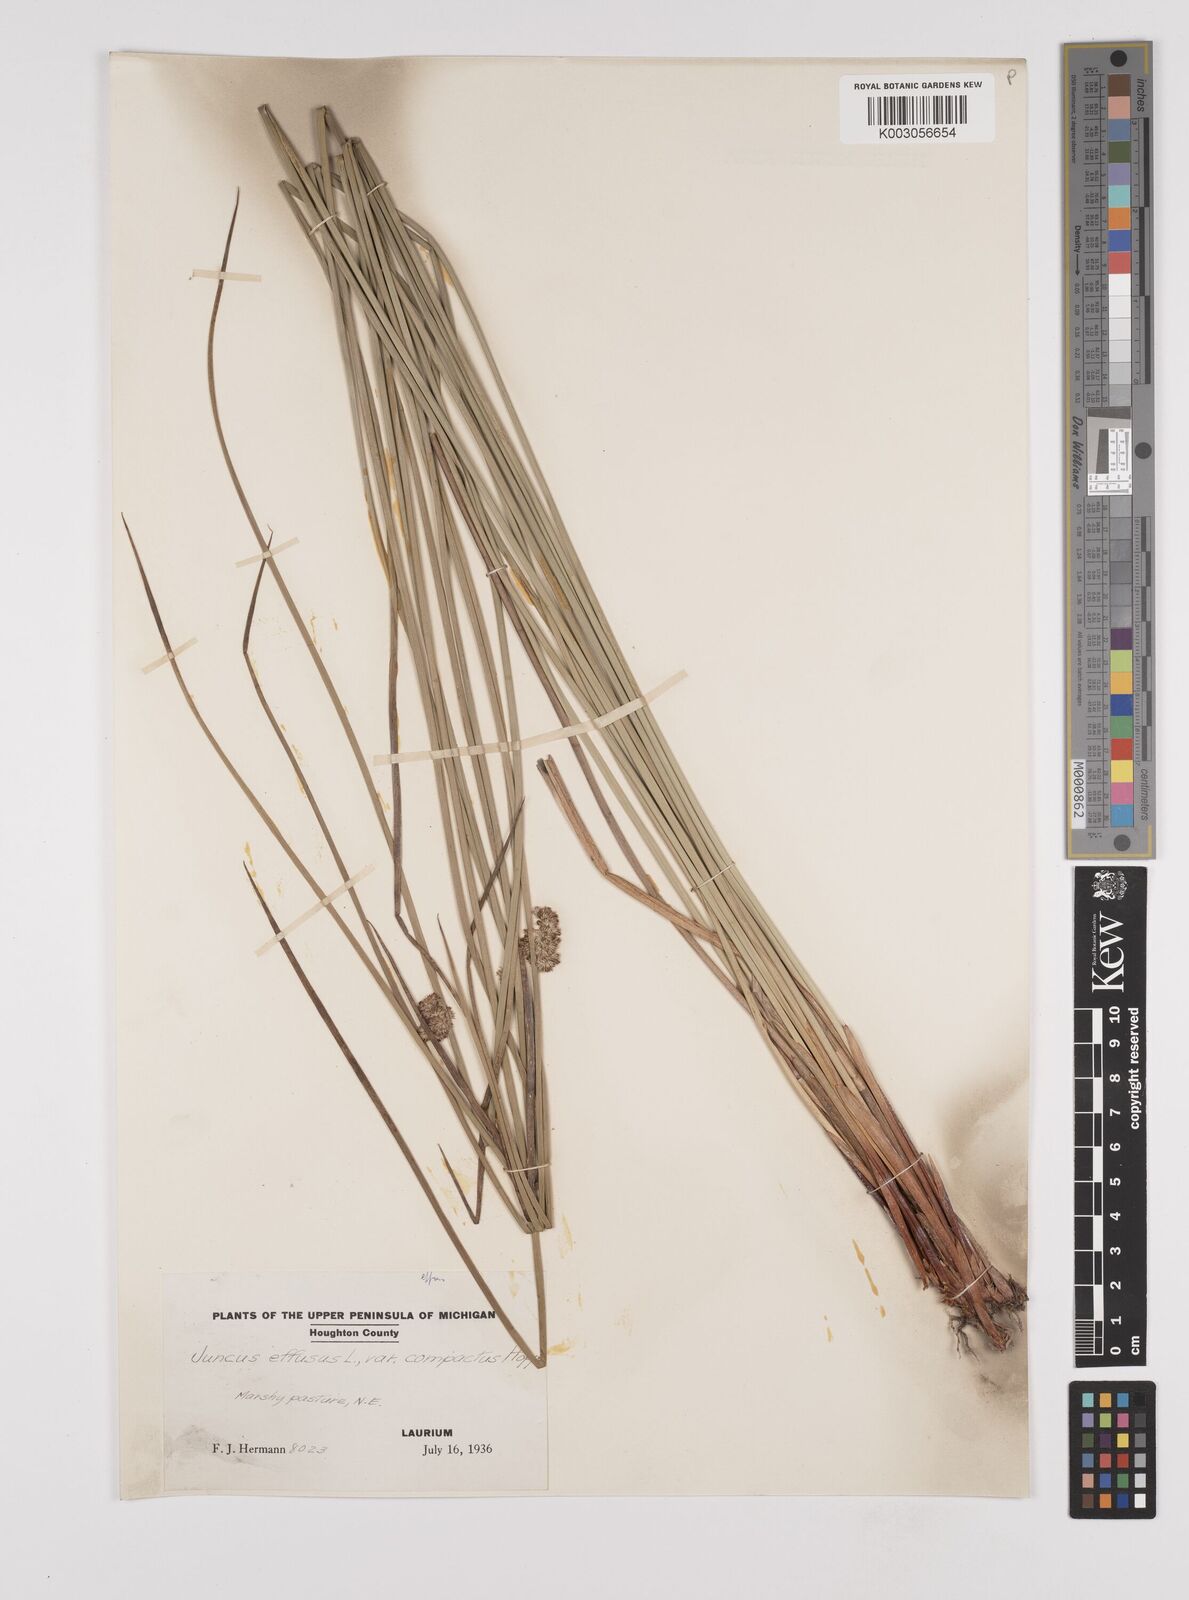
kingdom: Plantae
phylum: Tracheophyta
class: Liliopsida
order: Poales
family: Juncaceae
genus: Juncus
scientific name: Juncus effusus
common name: Soft rush
